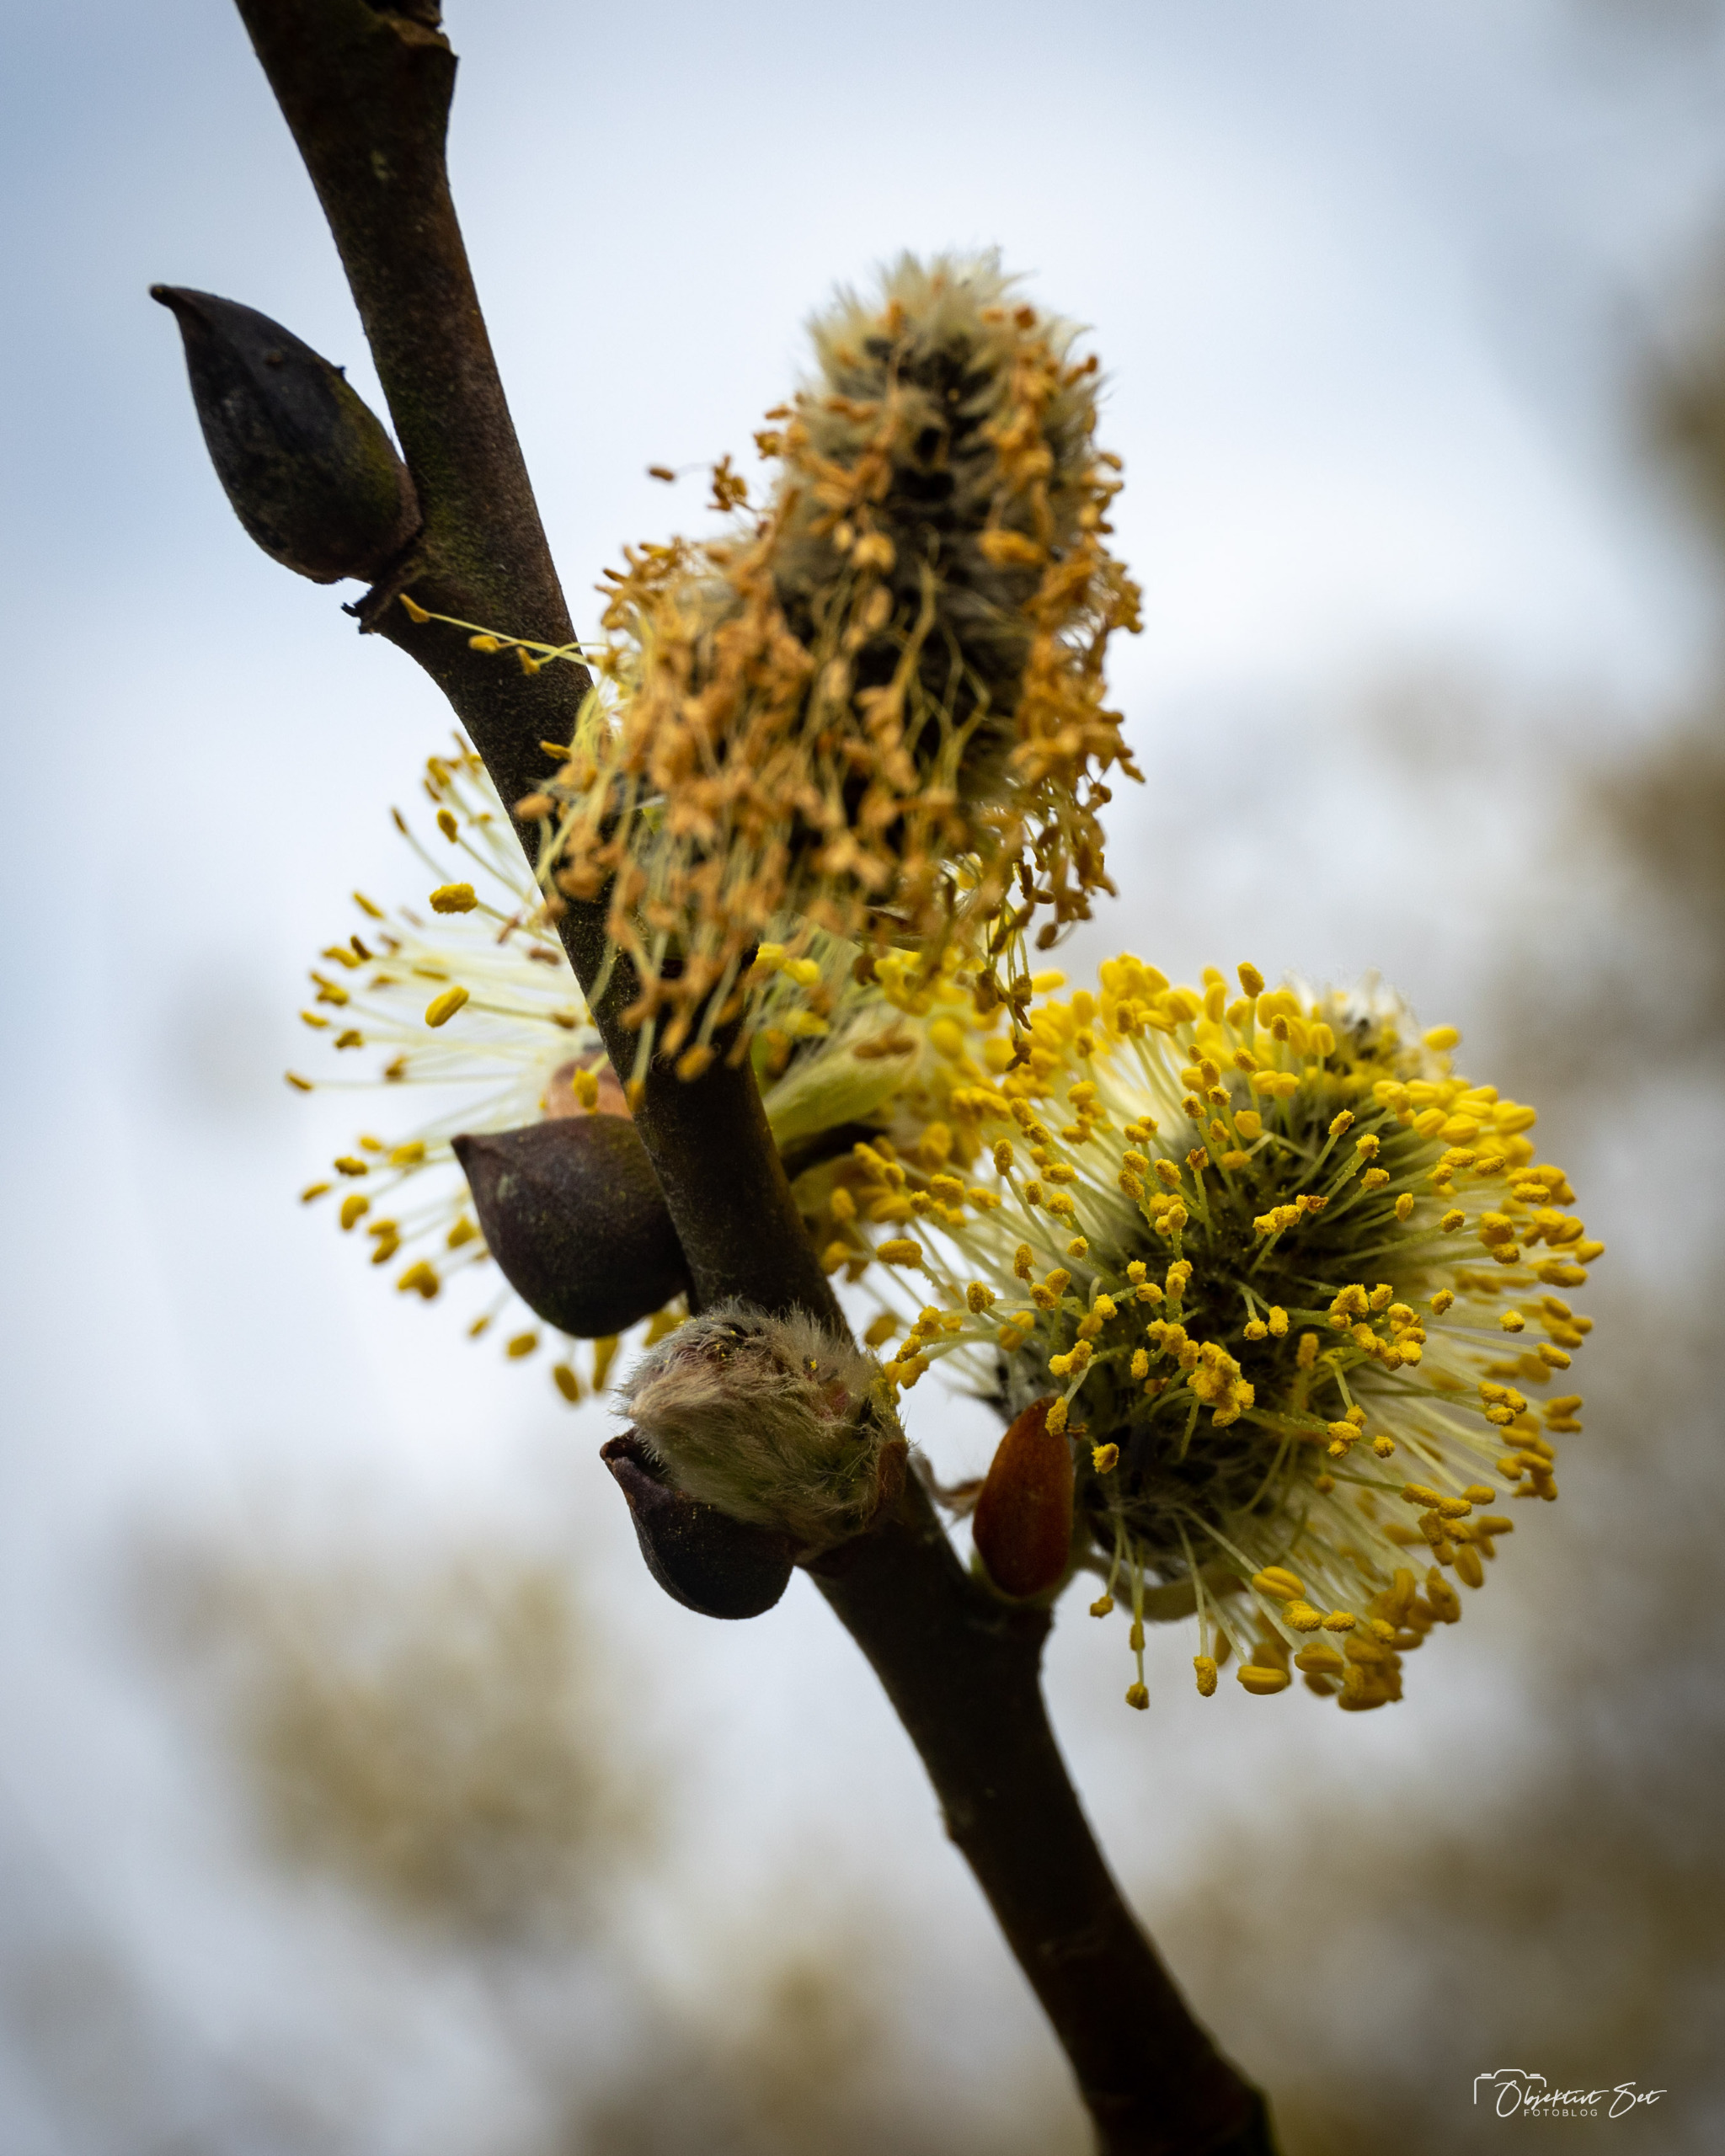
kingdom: Plantae
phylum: Tracheophyta
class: Magnoliopsida
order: Malpighiales
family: Salicaceae
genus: Salix
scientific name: Salix caprea
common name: Selje-pil
